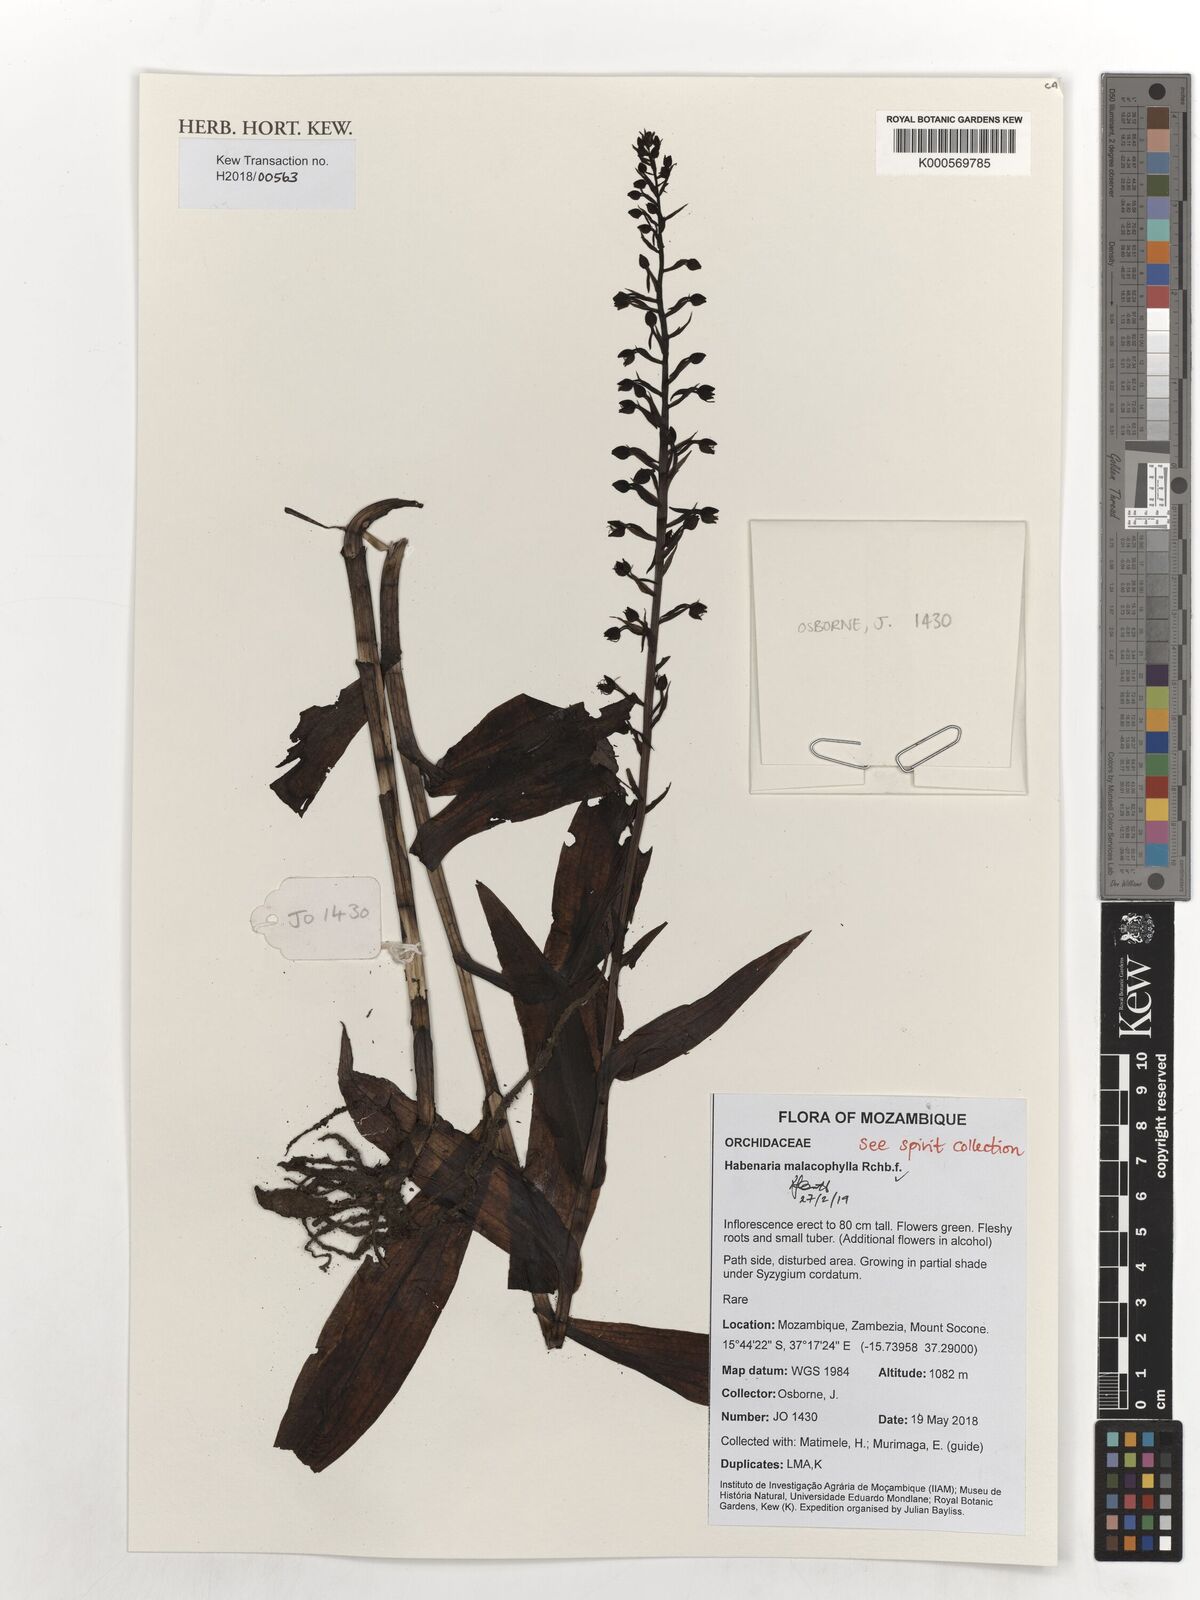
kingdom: Plantae
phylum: Tracheophyta
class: Liliopsida
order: Asparagales
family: Orchidaceae
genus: Habenaria
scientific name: Habenaria malacophylla
